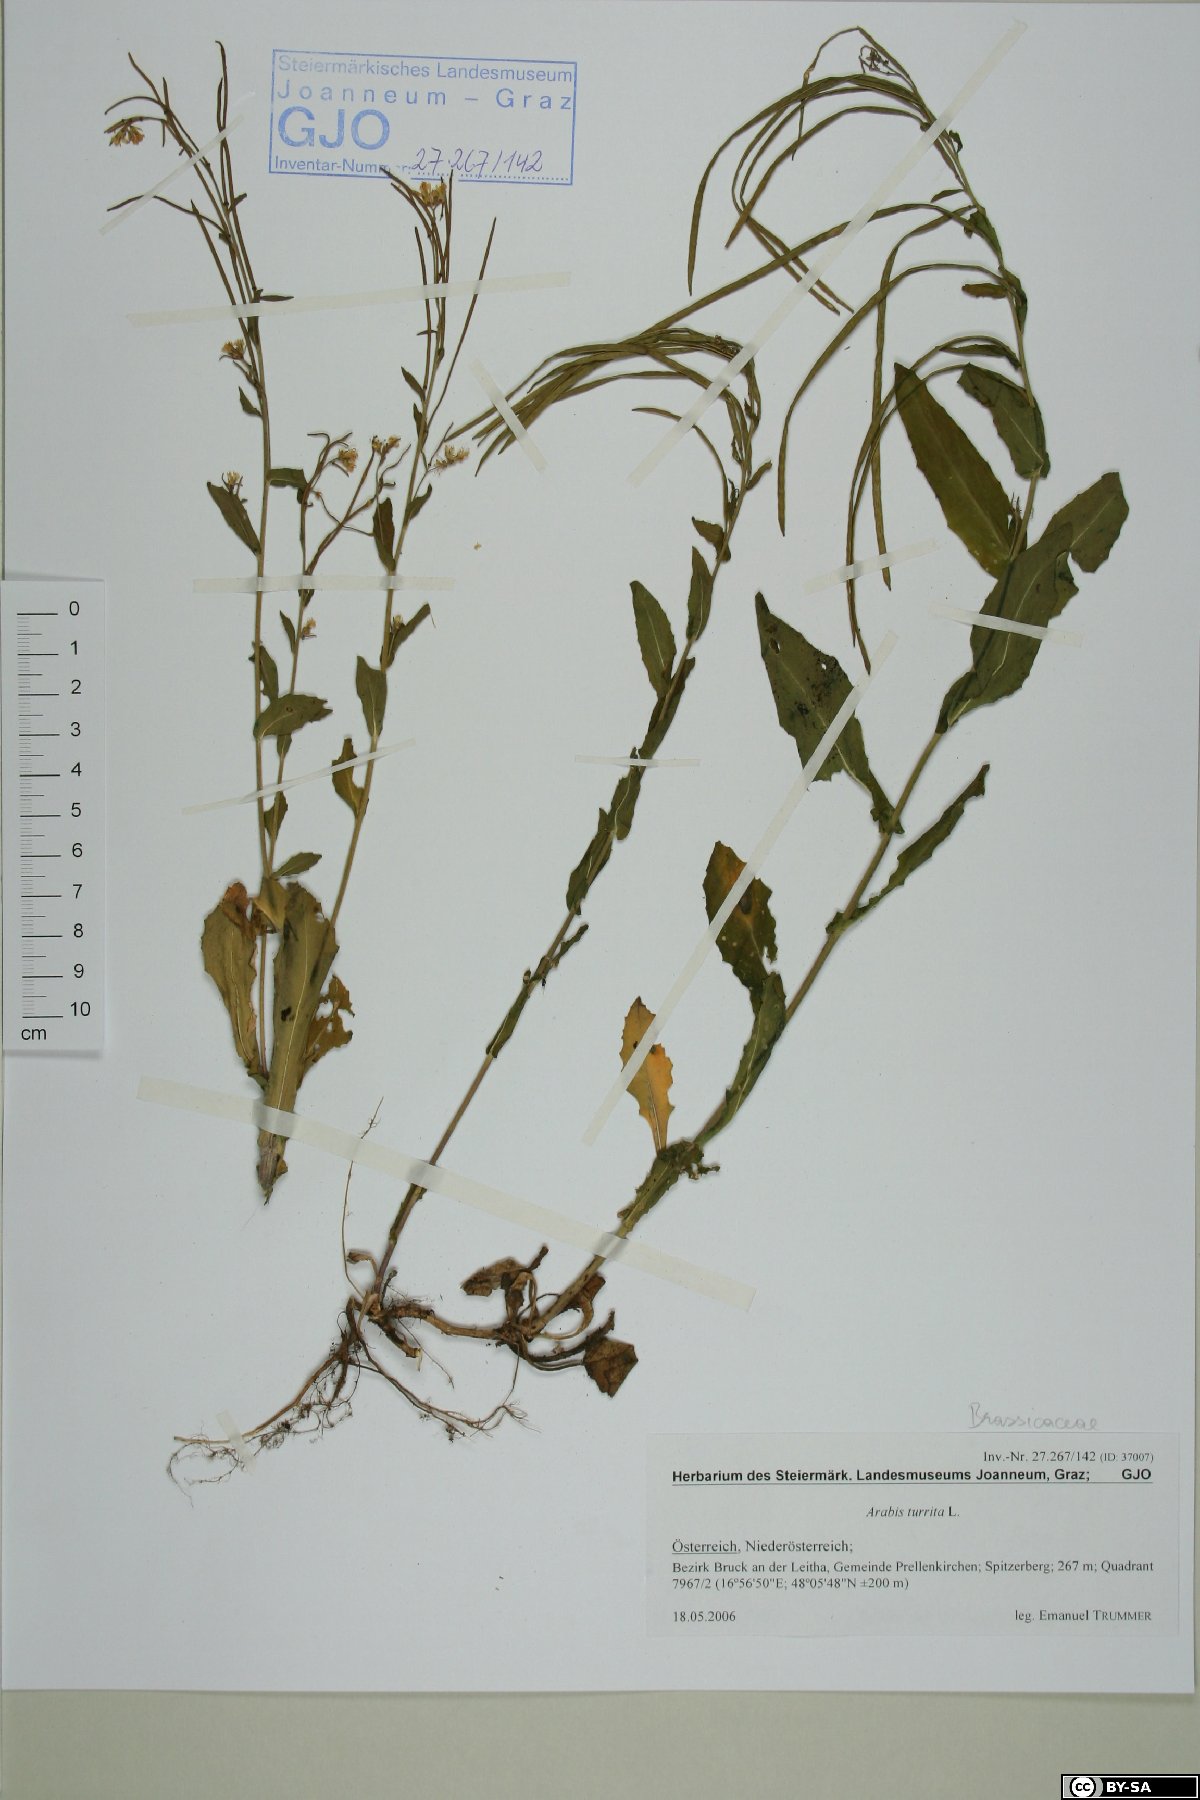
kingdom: Plantae
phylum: Tracheophyta
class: Magnoliopsida
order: Brassicales
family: Brassicaceae
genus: Pseudoturritis
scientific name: Pseudoturritis turrita
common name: Tower cress
